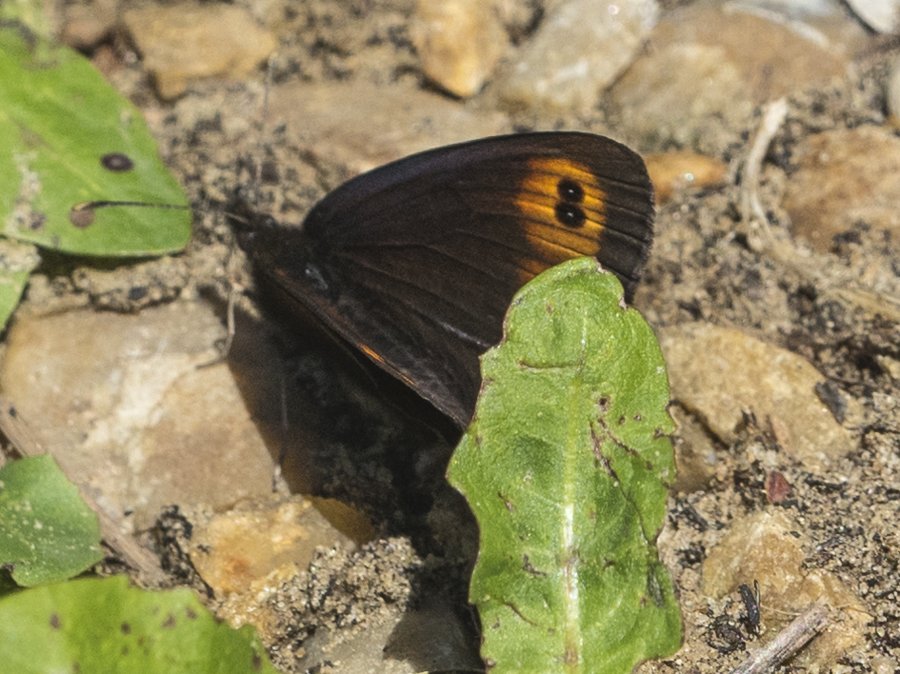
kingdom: Animalia
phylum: Arthropoda
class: Insecta
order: Lepidoptera
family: Nymphalidae
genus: Erebia
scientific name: Erebia epipsodea
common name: Common Alpine
